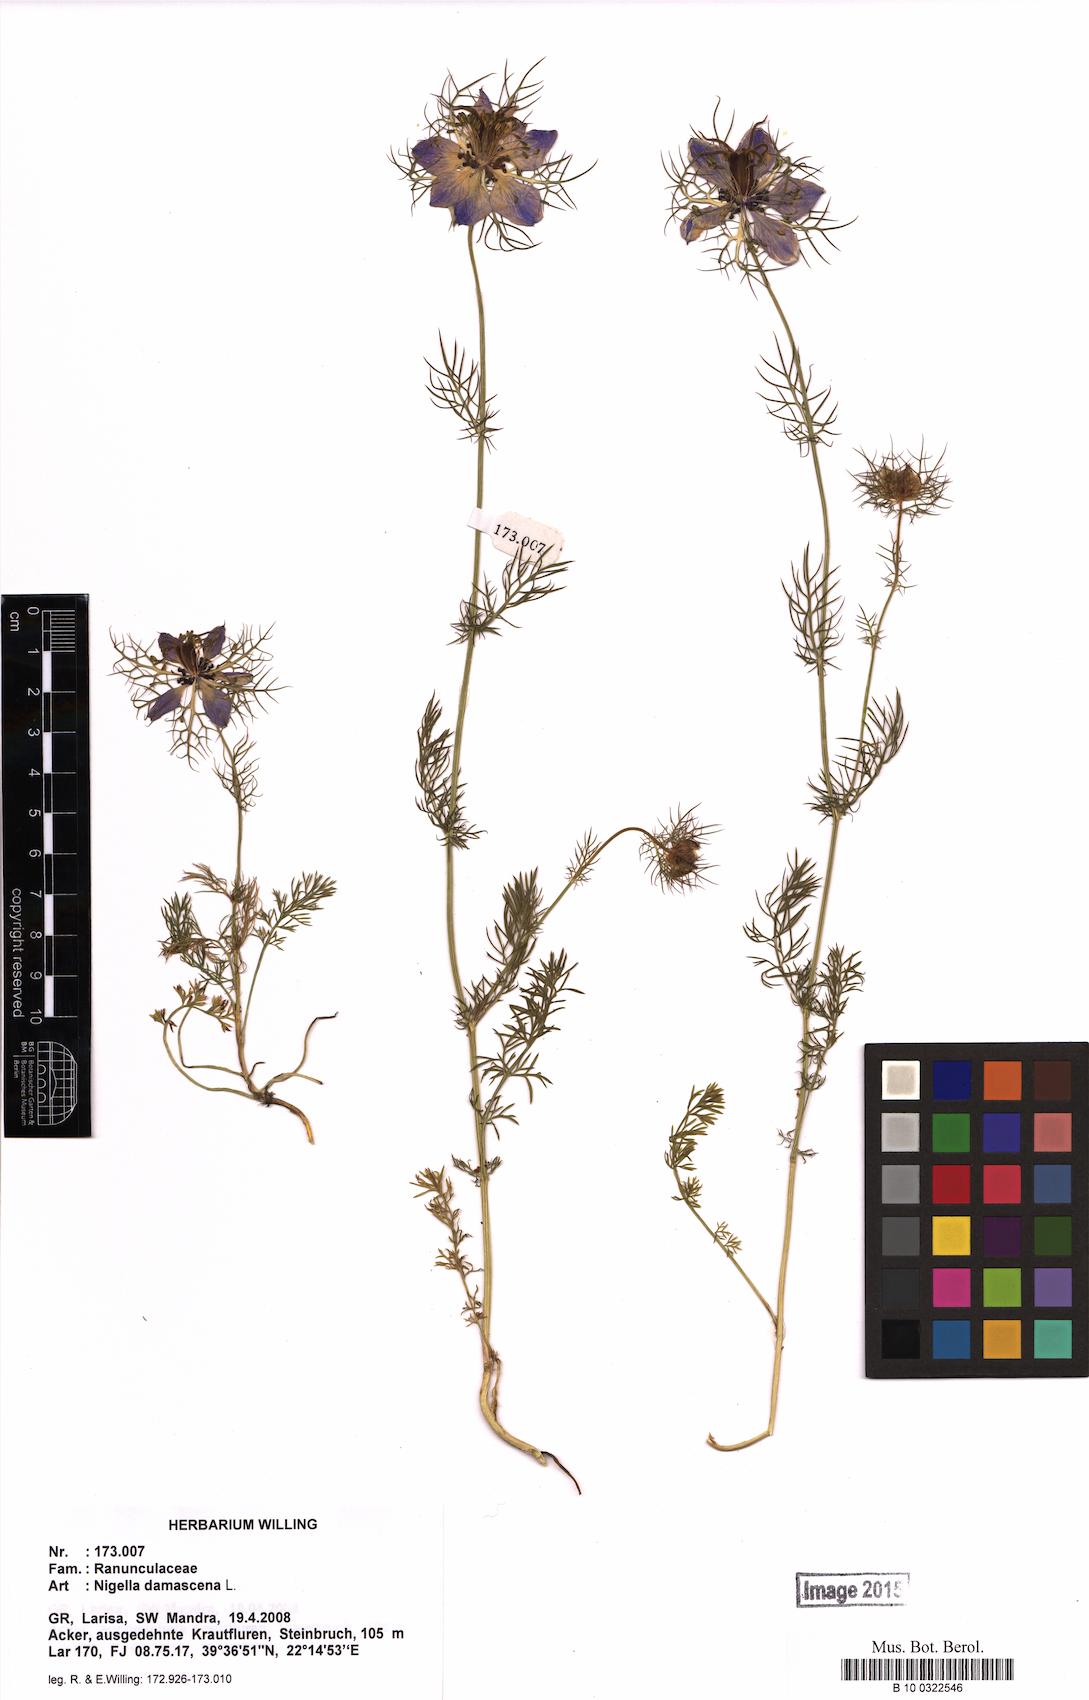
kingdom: Plantae
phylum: Tracheophyta
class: Magnoliopsida
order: Ranunculales
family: Ranunculaceae
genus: Nigella
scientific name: Nigella damascena
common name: Love-in-a-mist
